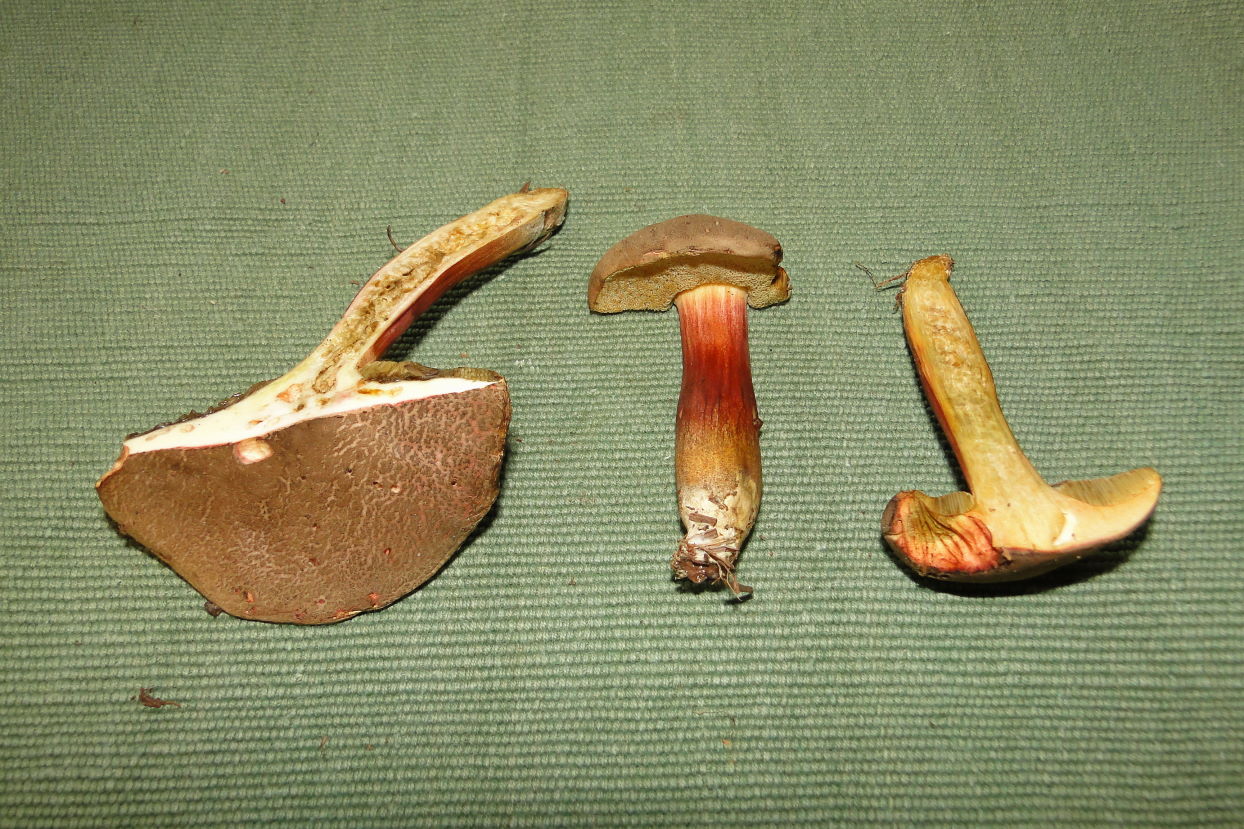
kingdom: Fungi
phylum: Basidiomycota
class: Agaricomycetes
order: Boletales
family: Boletaceae
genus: Xerocomellus
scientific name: Xerocomellus chrysenteron
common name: rødsprukken rørhat
